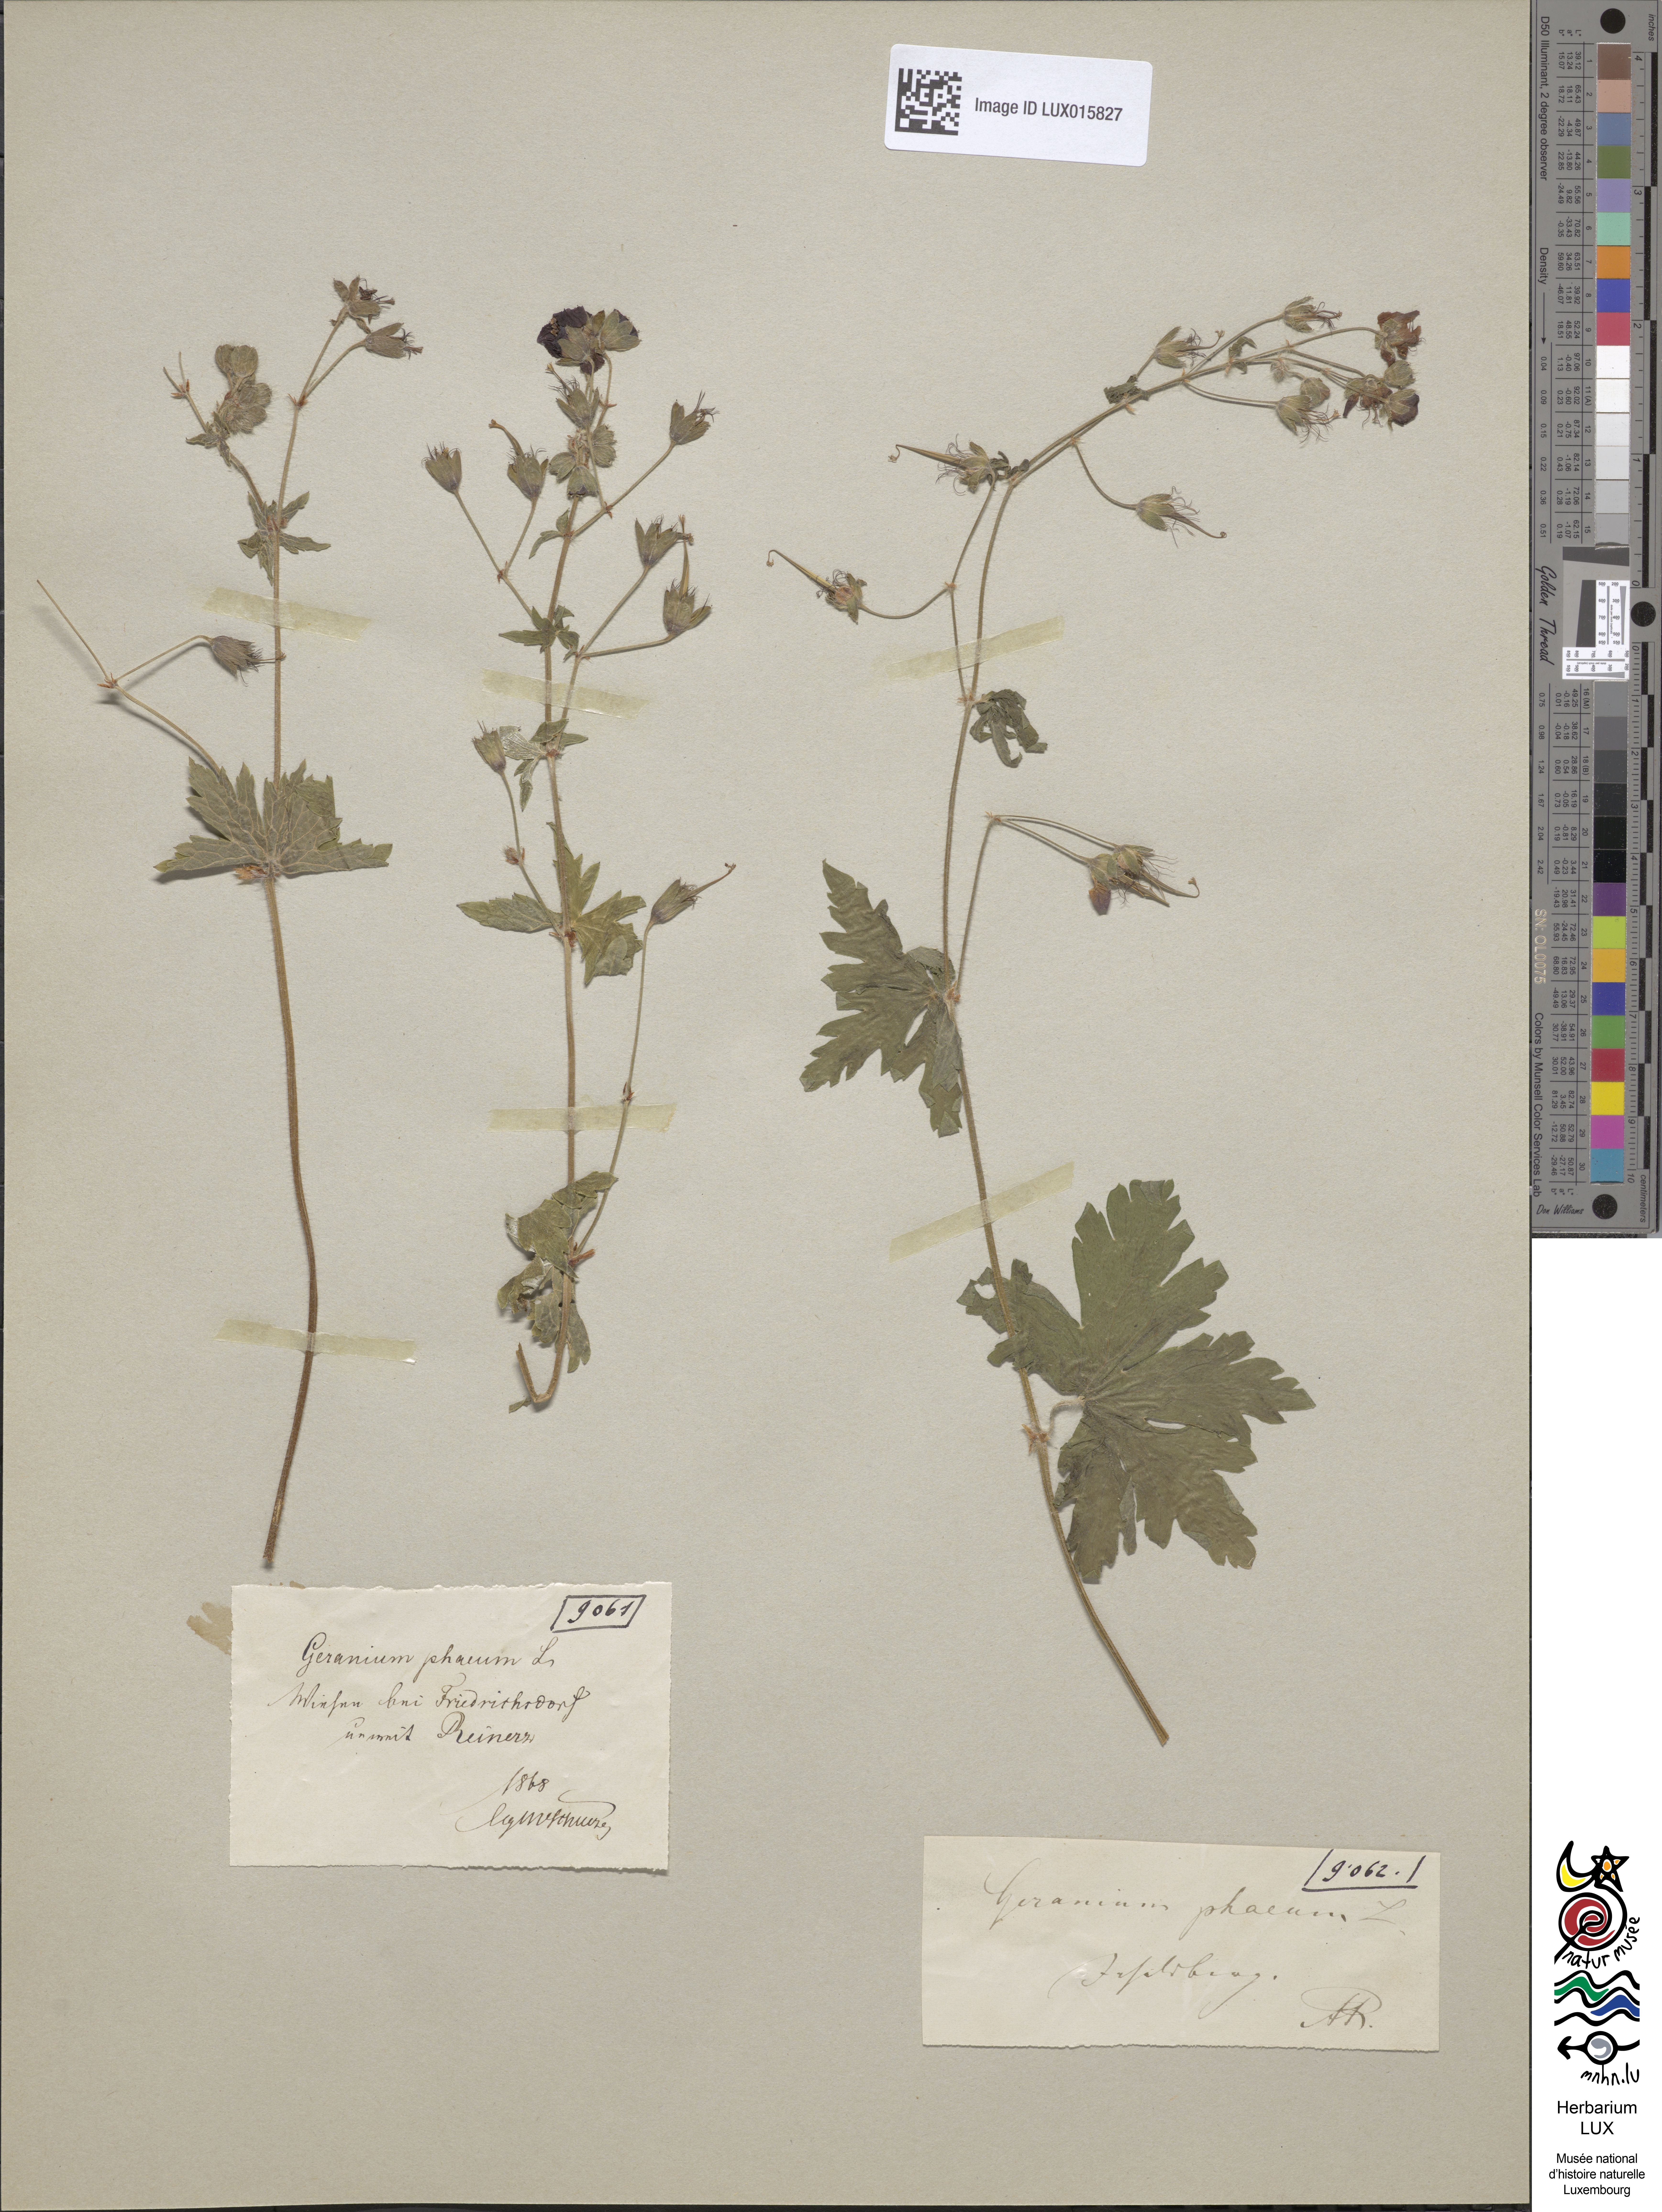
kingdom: Plantae
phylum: Tracheophyta
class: Magnoliopsida
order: Geraniales
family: Geraniaceae
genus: Geranium
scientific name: Geranium phaeum
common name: Dusky crane's-bill
